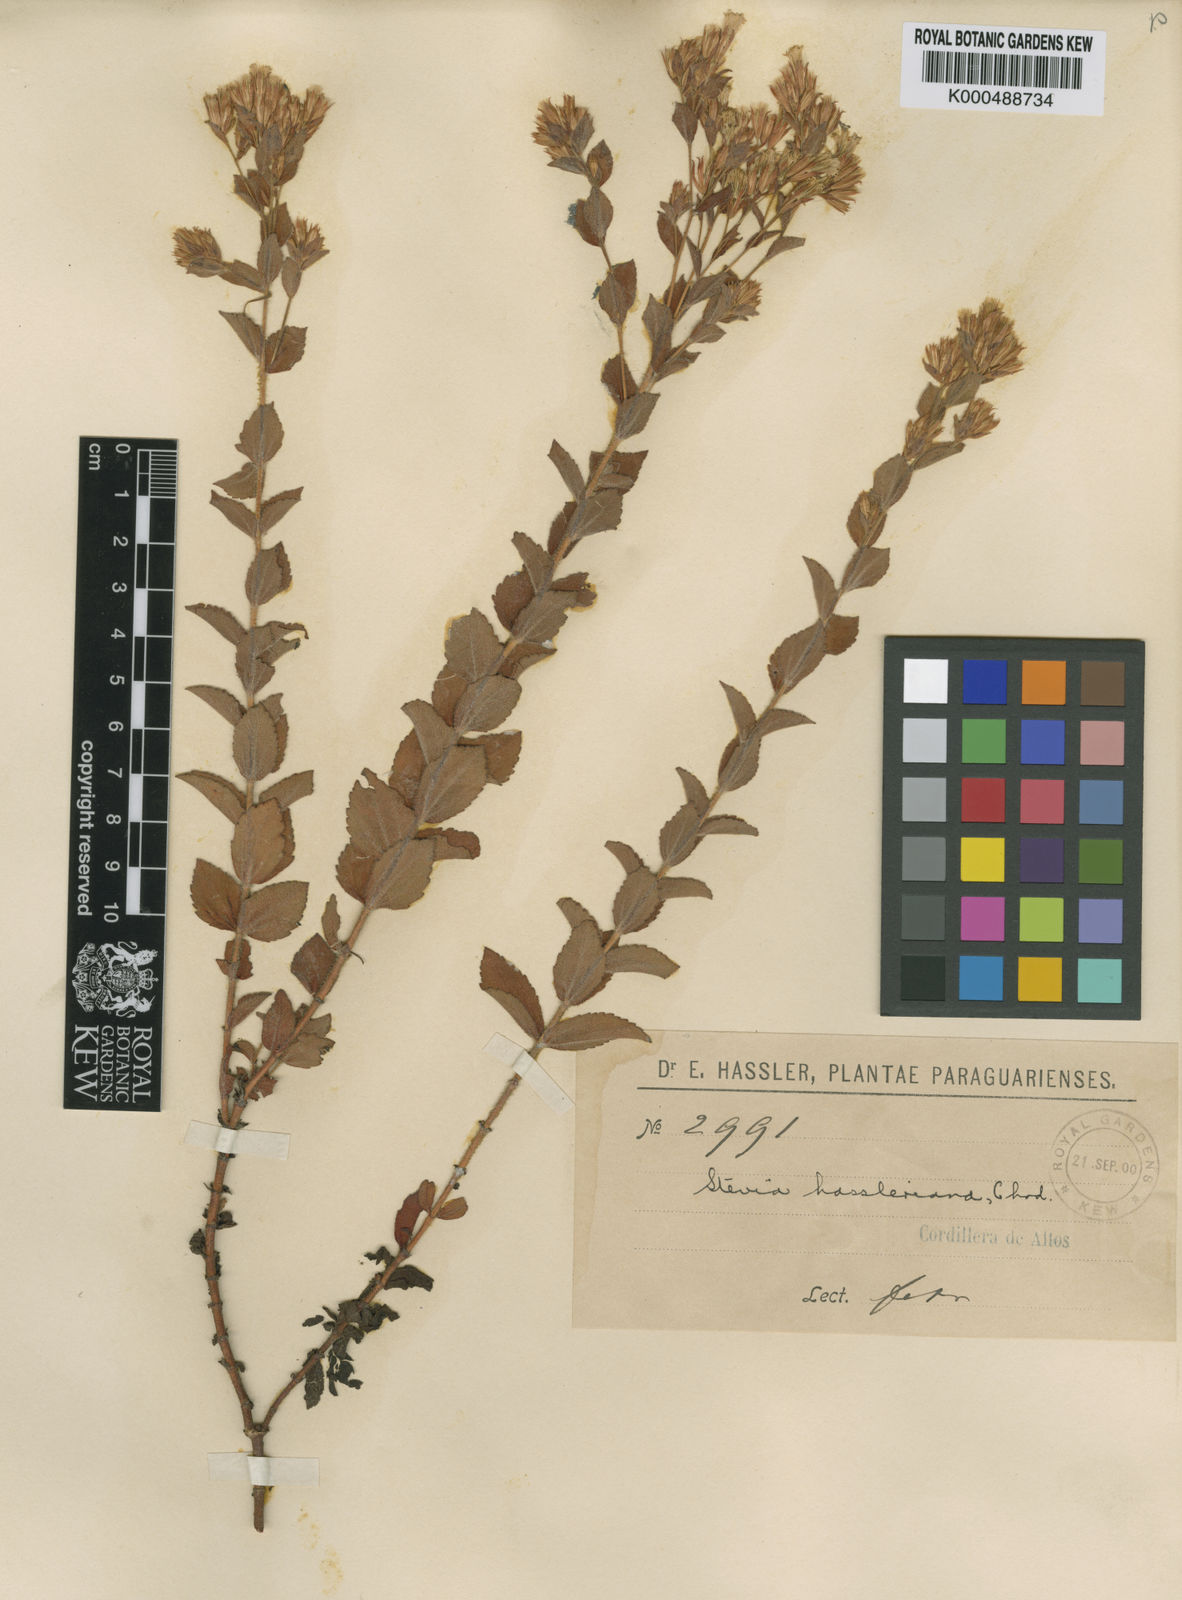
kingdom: Plantae
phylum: Tracheophyta
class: Magnoliopsida
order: Asterales
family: Asteraceae
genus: Stevia
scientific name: Stevia balansae
